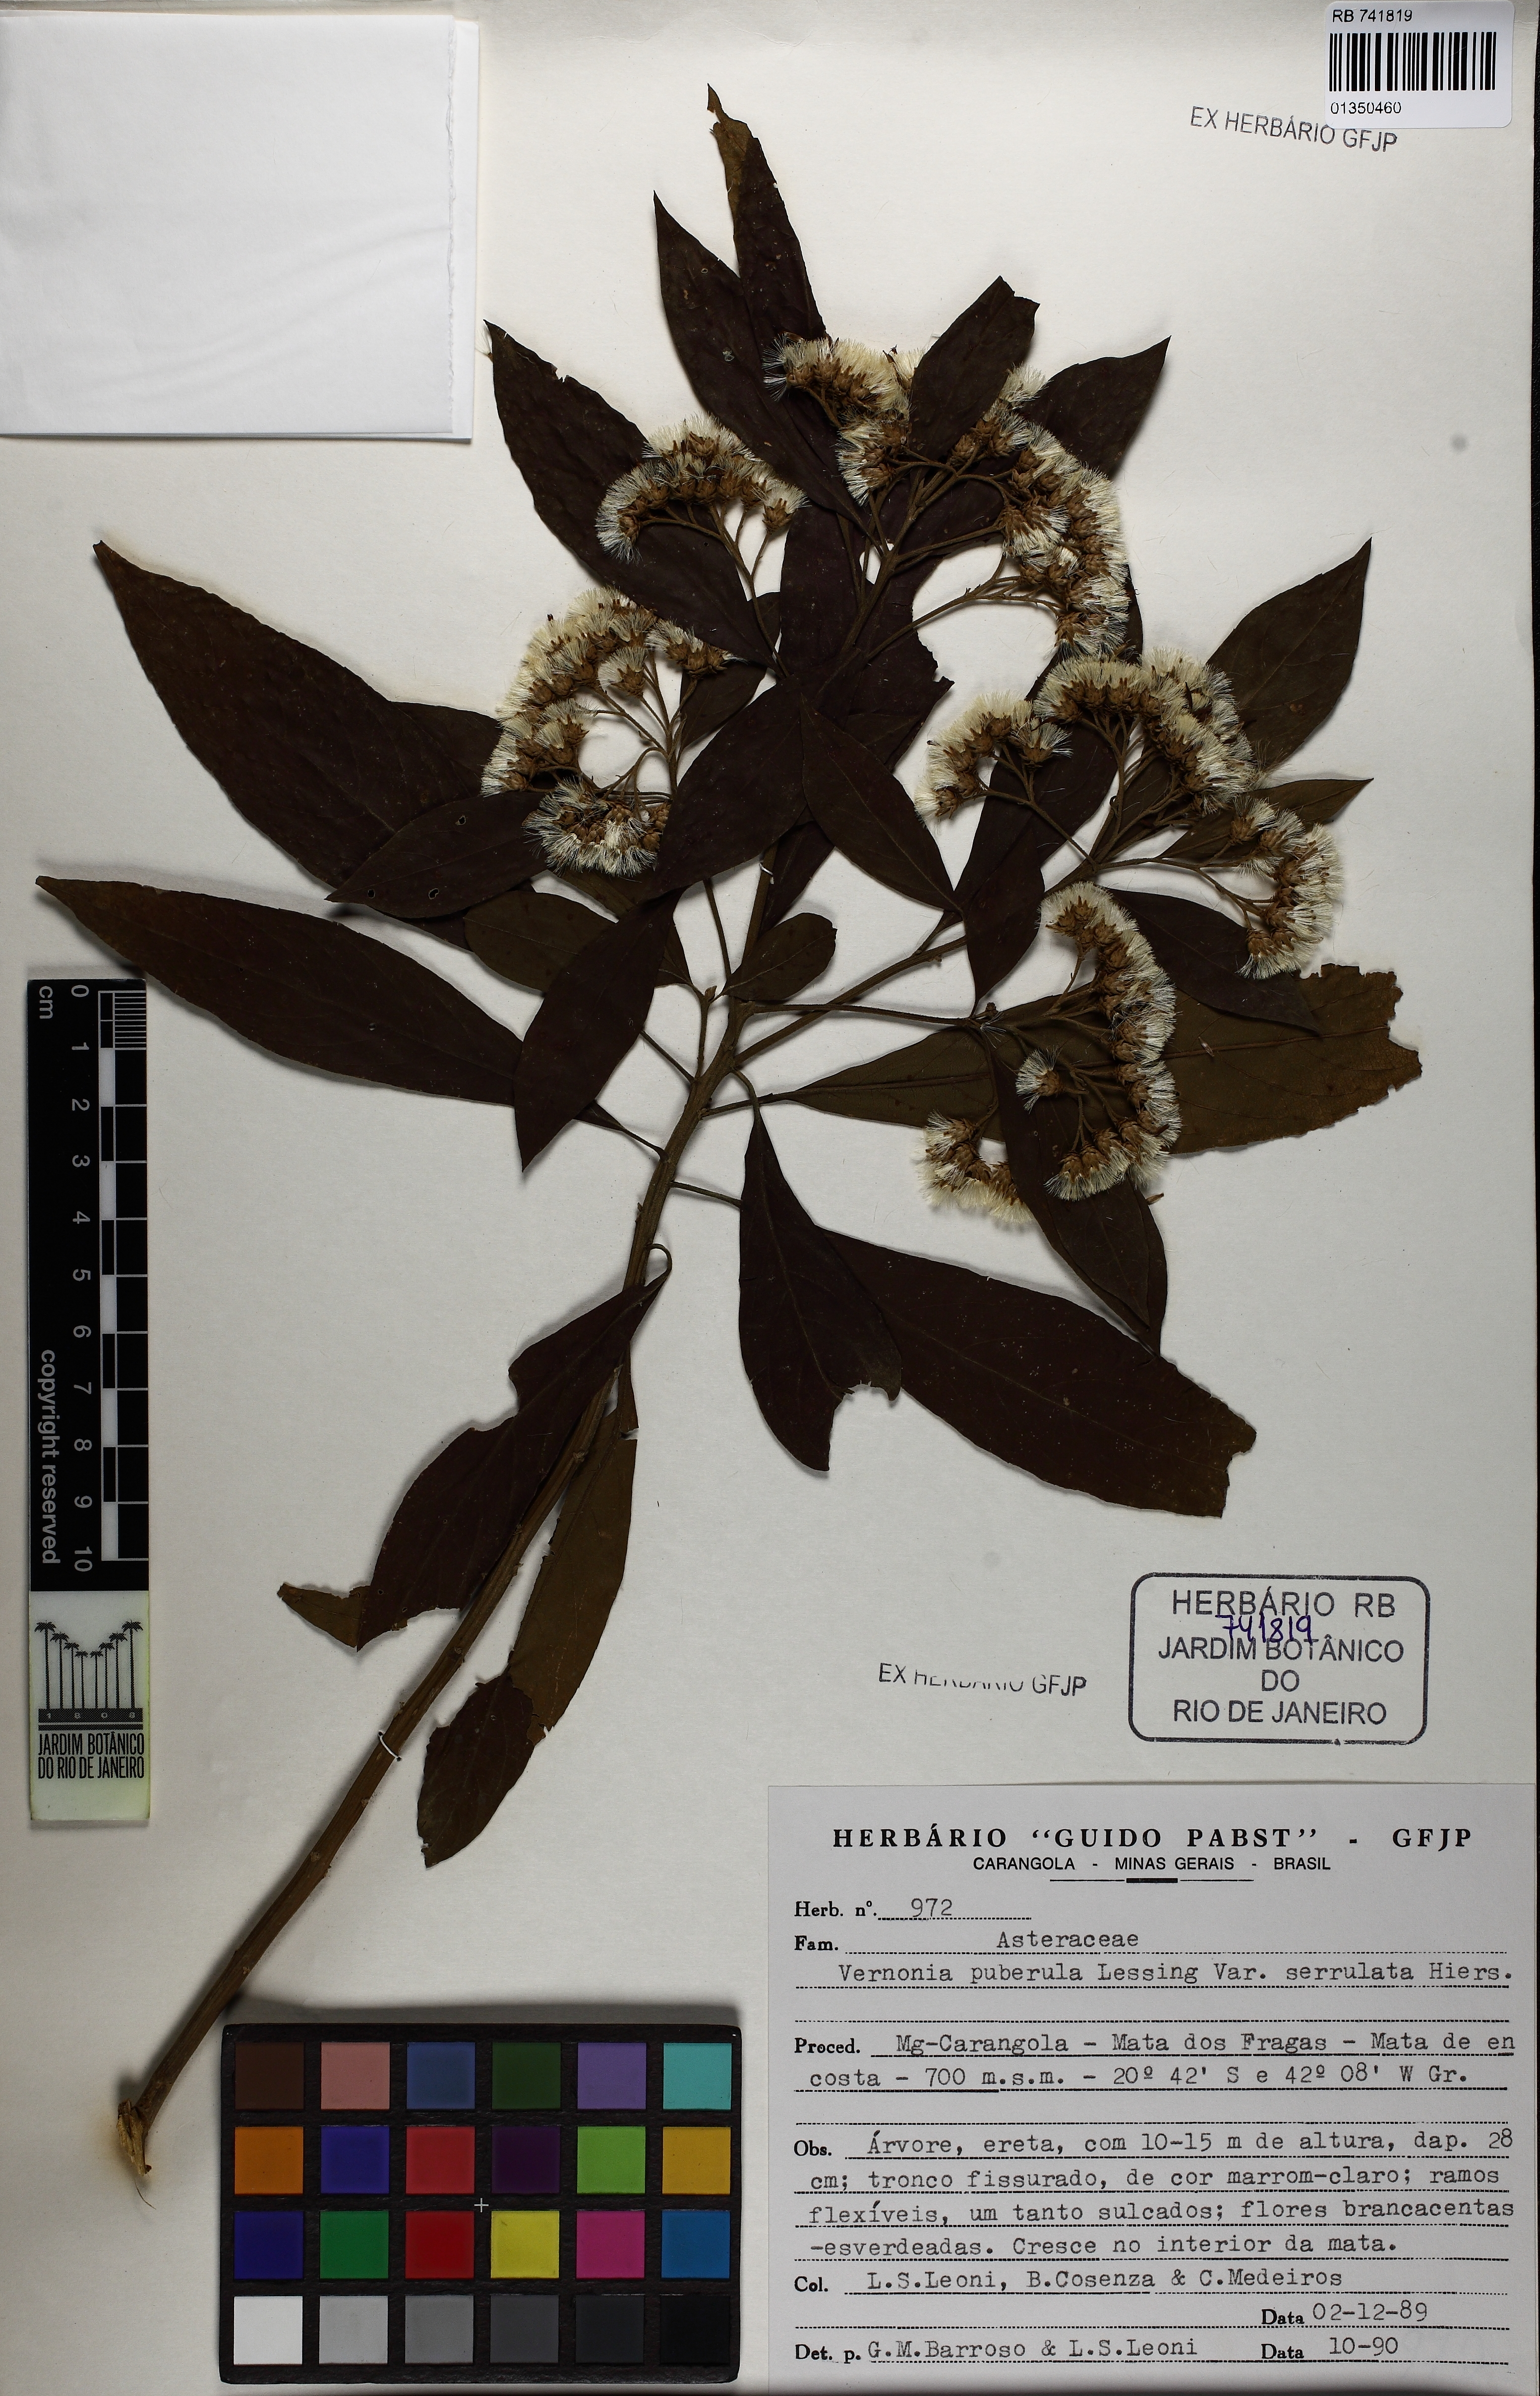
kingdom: Plantae
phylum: Tracheophyta
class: Magnoliopsida
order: Asterales
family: Asteraceae
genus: Vernonanthura
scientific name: Vernonanthura puberula
